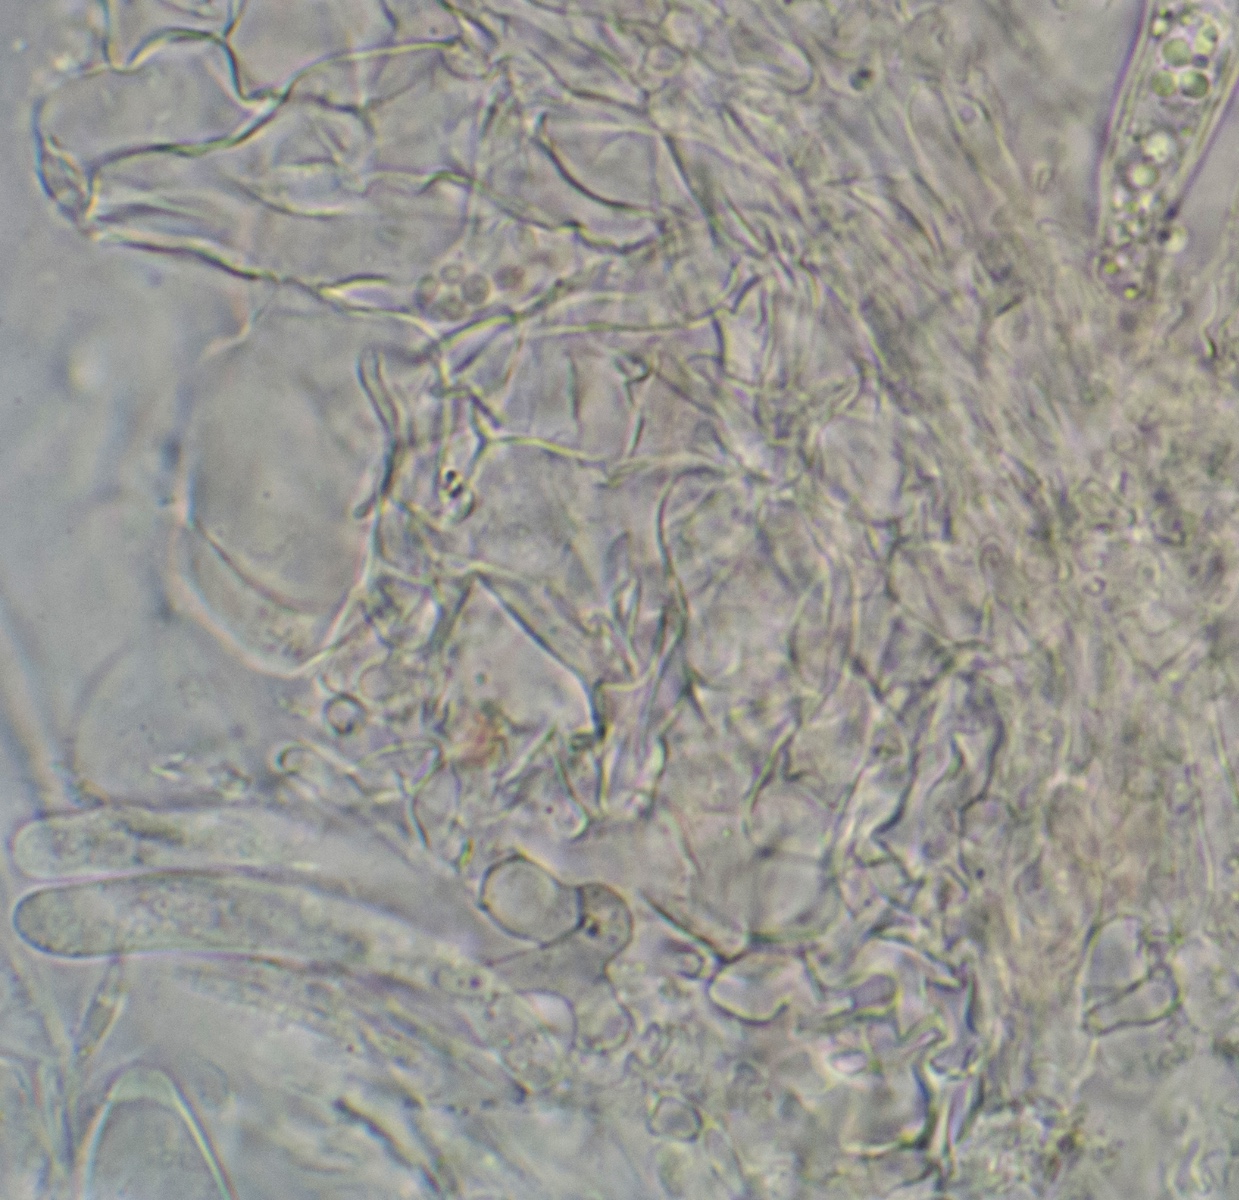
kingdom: Fungi
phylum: Ascomycota
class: Leotiomycetes
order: Helotiales
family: Hyaloscyphaceae
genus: Hyaloscypha
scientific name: Hyaloscypha vitreola
